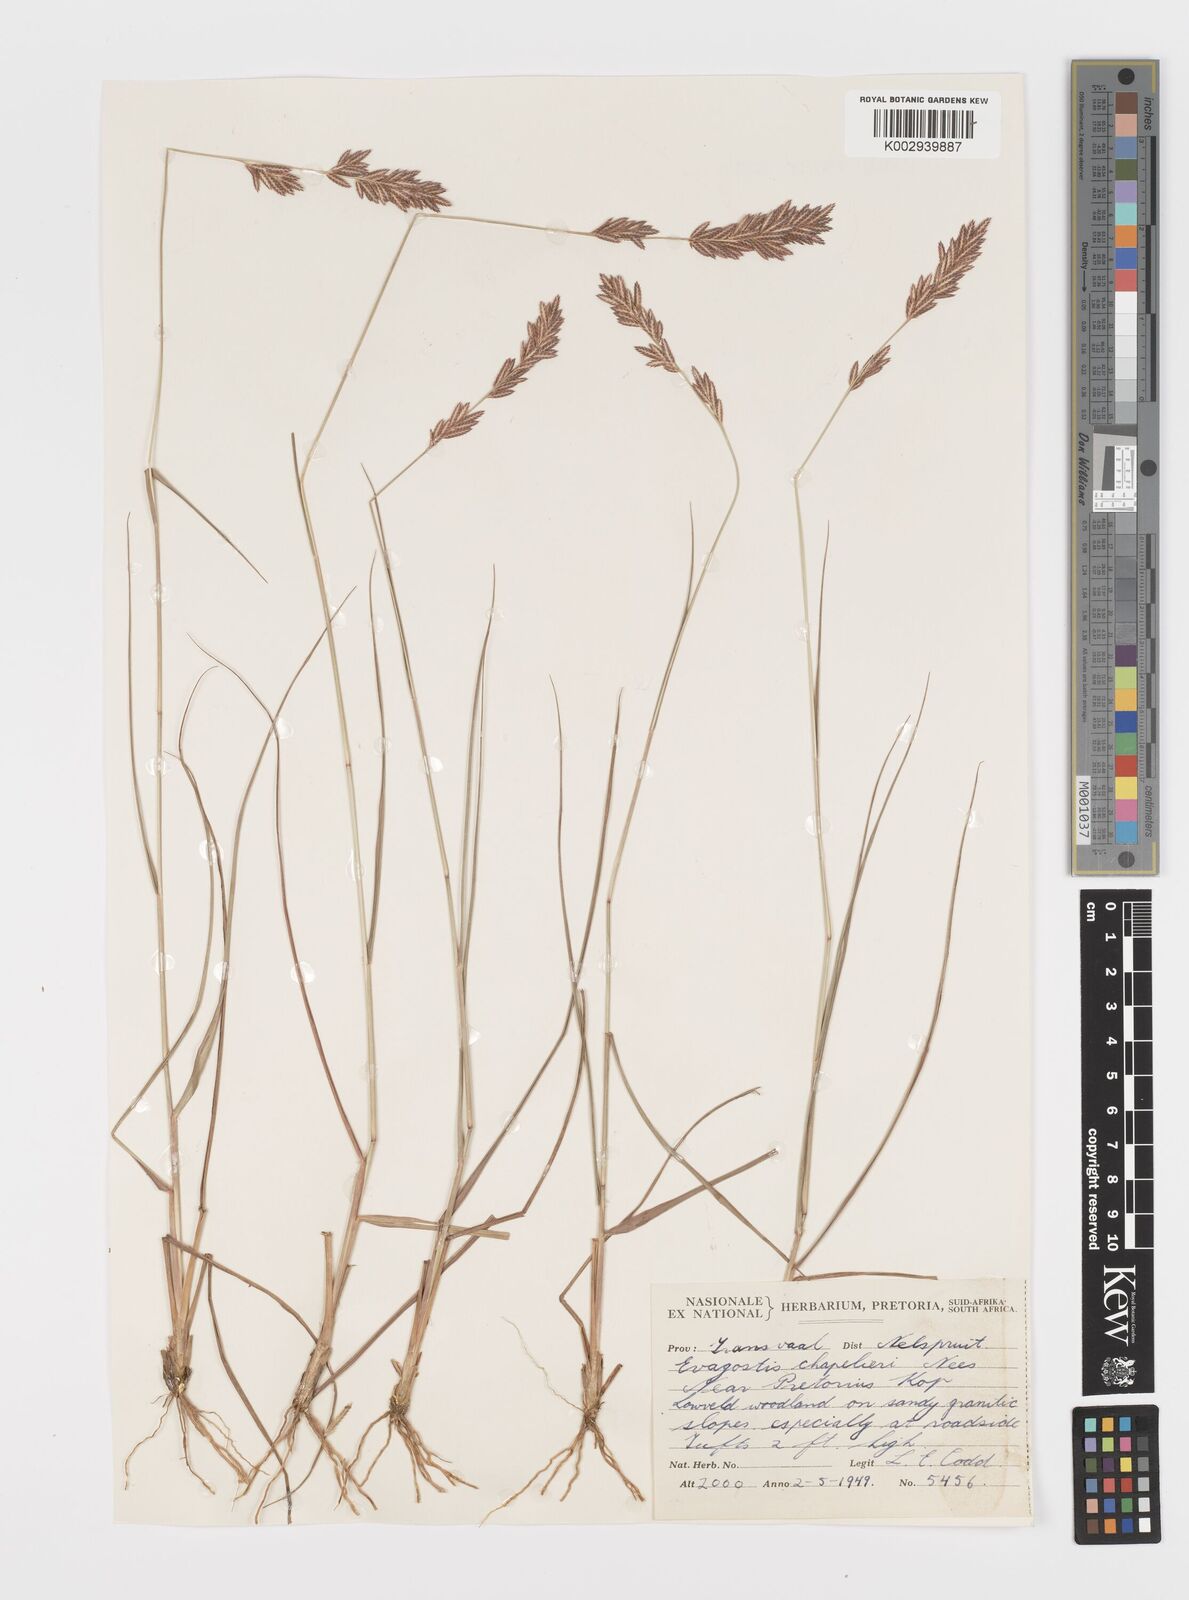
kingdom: Plantae
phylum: Tracheophyta
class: Liliopsida
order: Poales
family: Poaceae
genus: Eragrostis
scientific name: Eragrostis chapelieri
